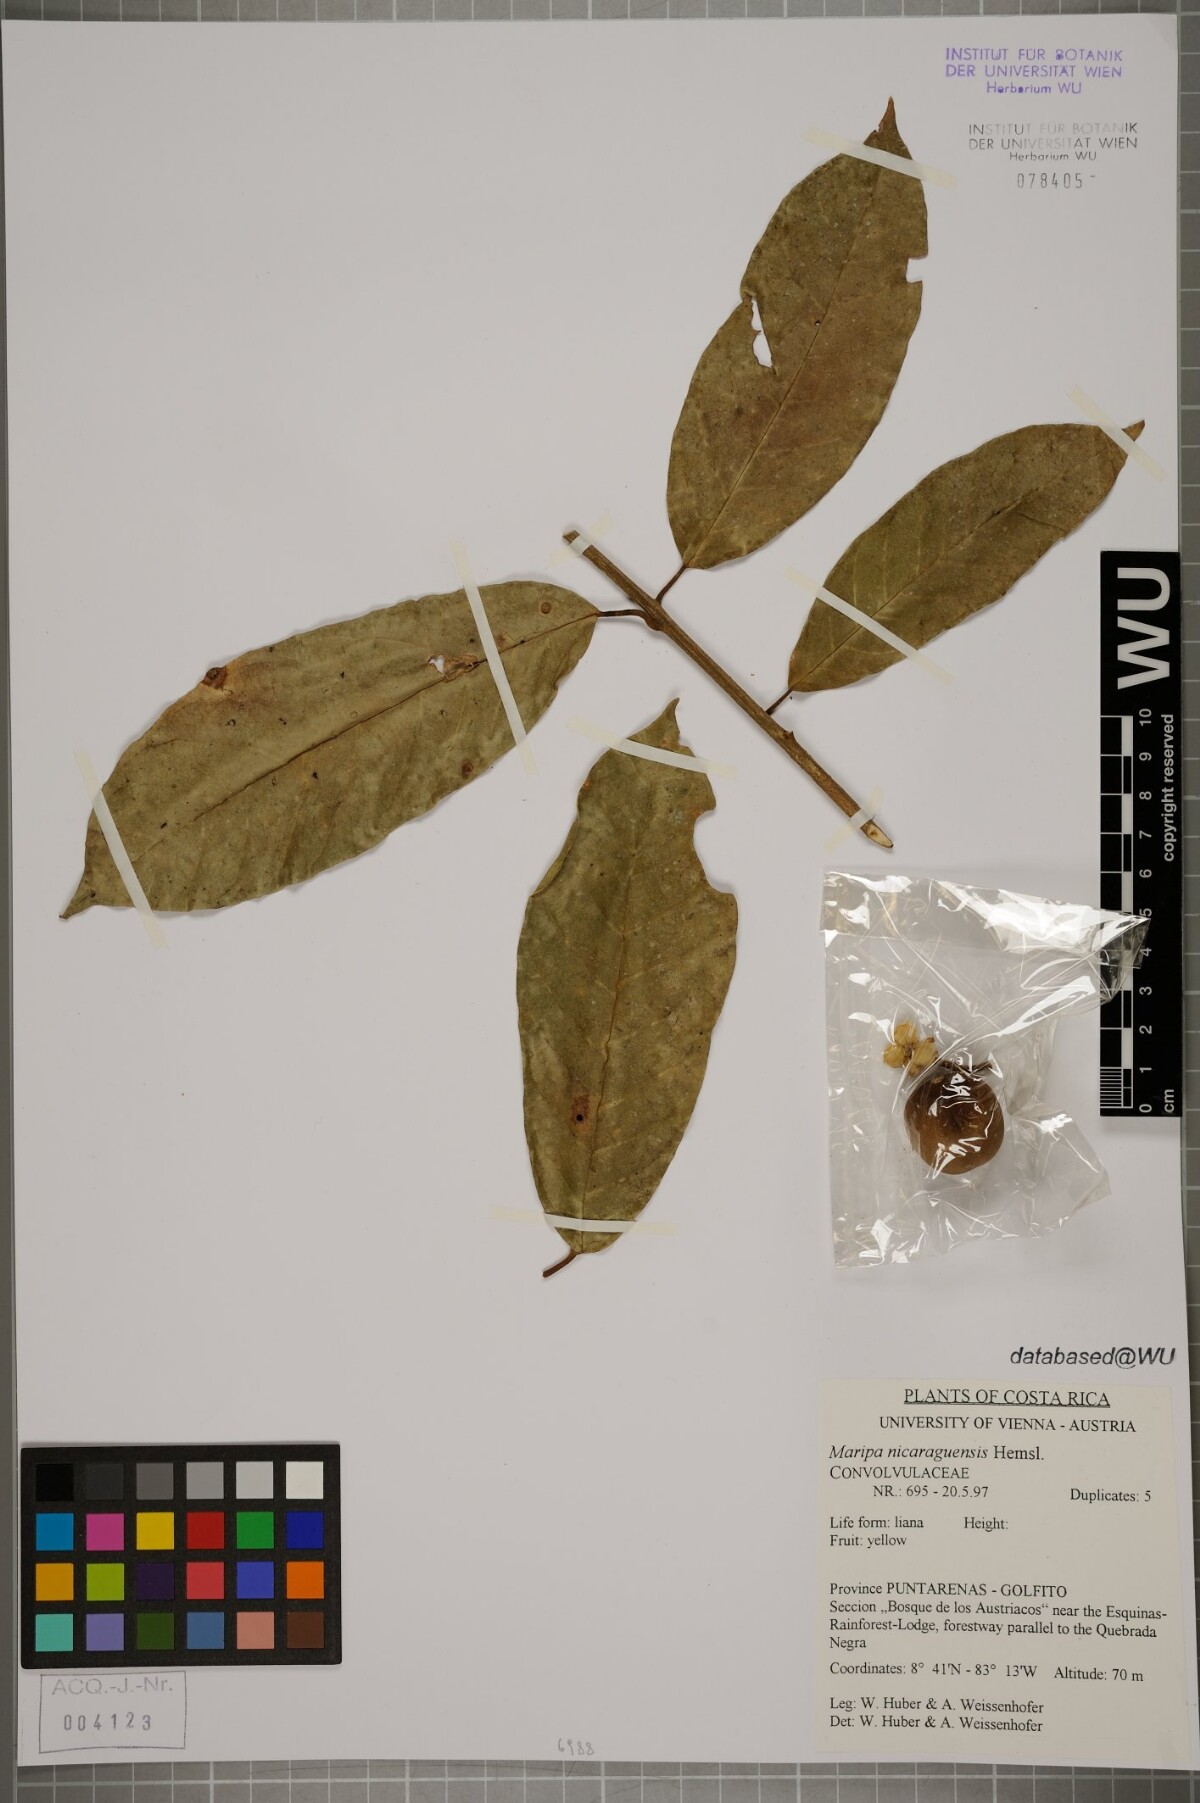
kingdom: Plantae
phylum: Tracheophyta
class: Magnoliopsida
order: Solanales
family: Convolvulaceae
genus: Maripa
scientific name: Maripa nicaraguensis
